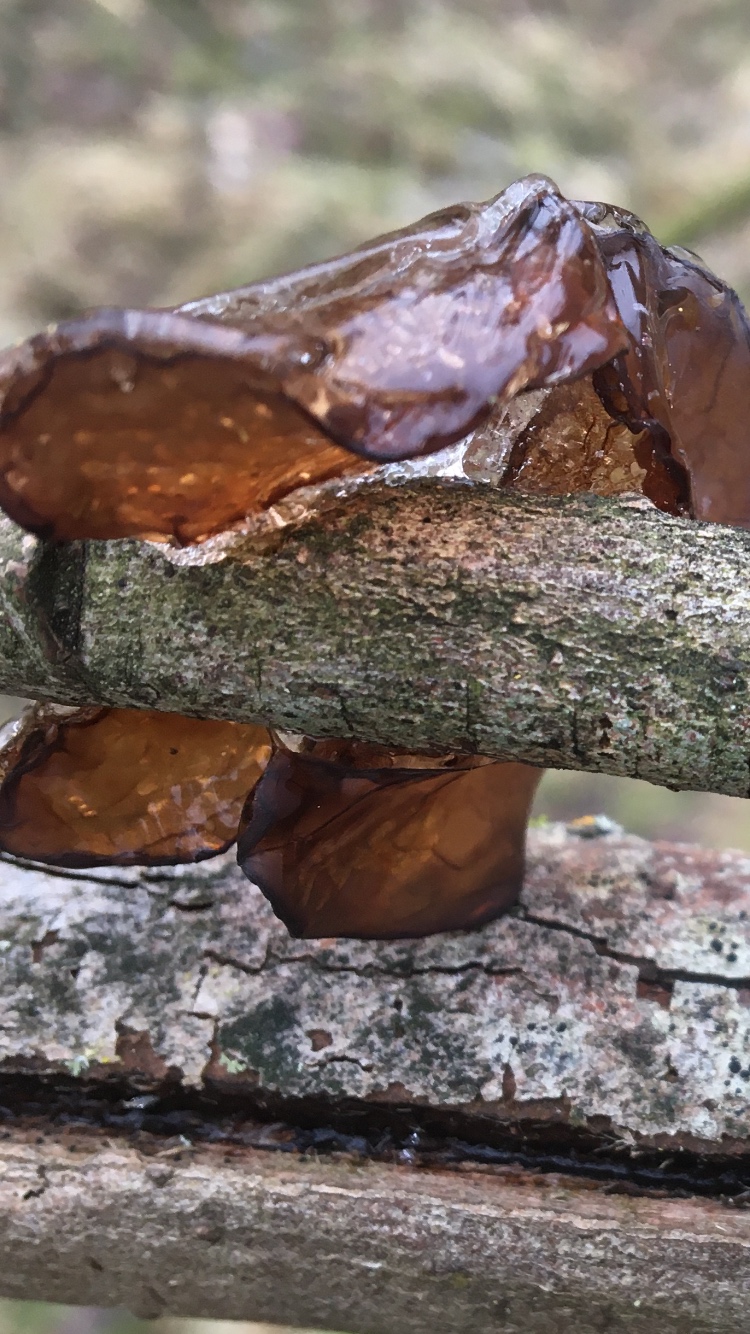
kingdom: Fungi
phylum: Basidiomycota
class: Agaricomycetes
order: Auriculariales
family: Auriculariaceae
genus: Exidia
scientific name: Exidia recisa
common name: pile-bævretop
